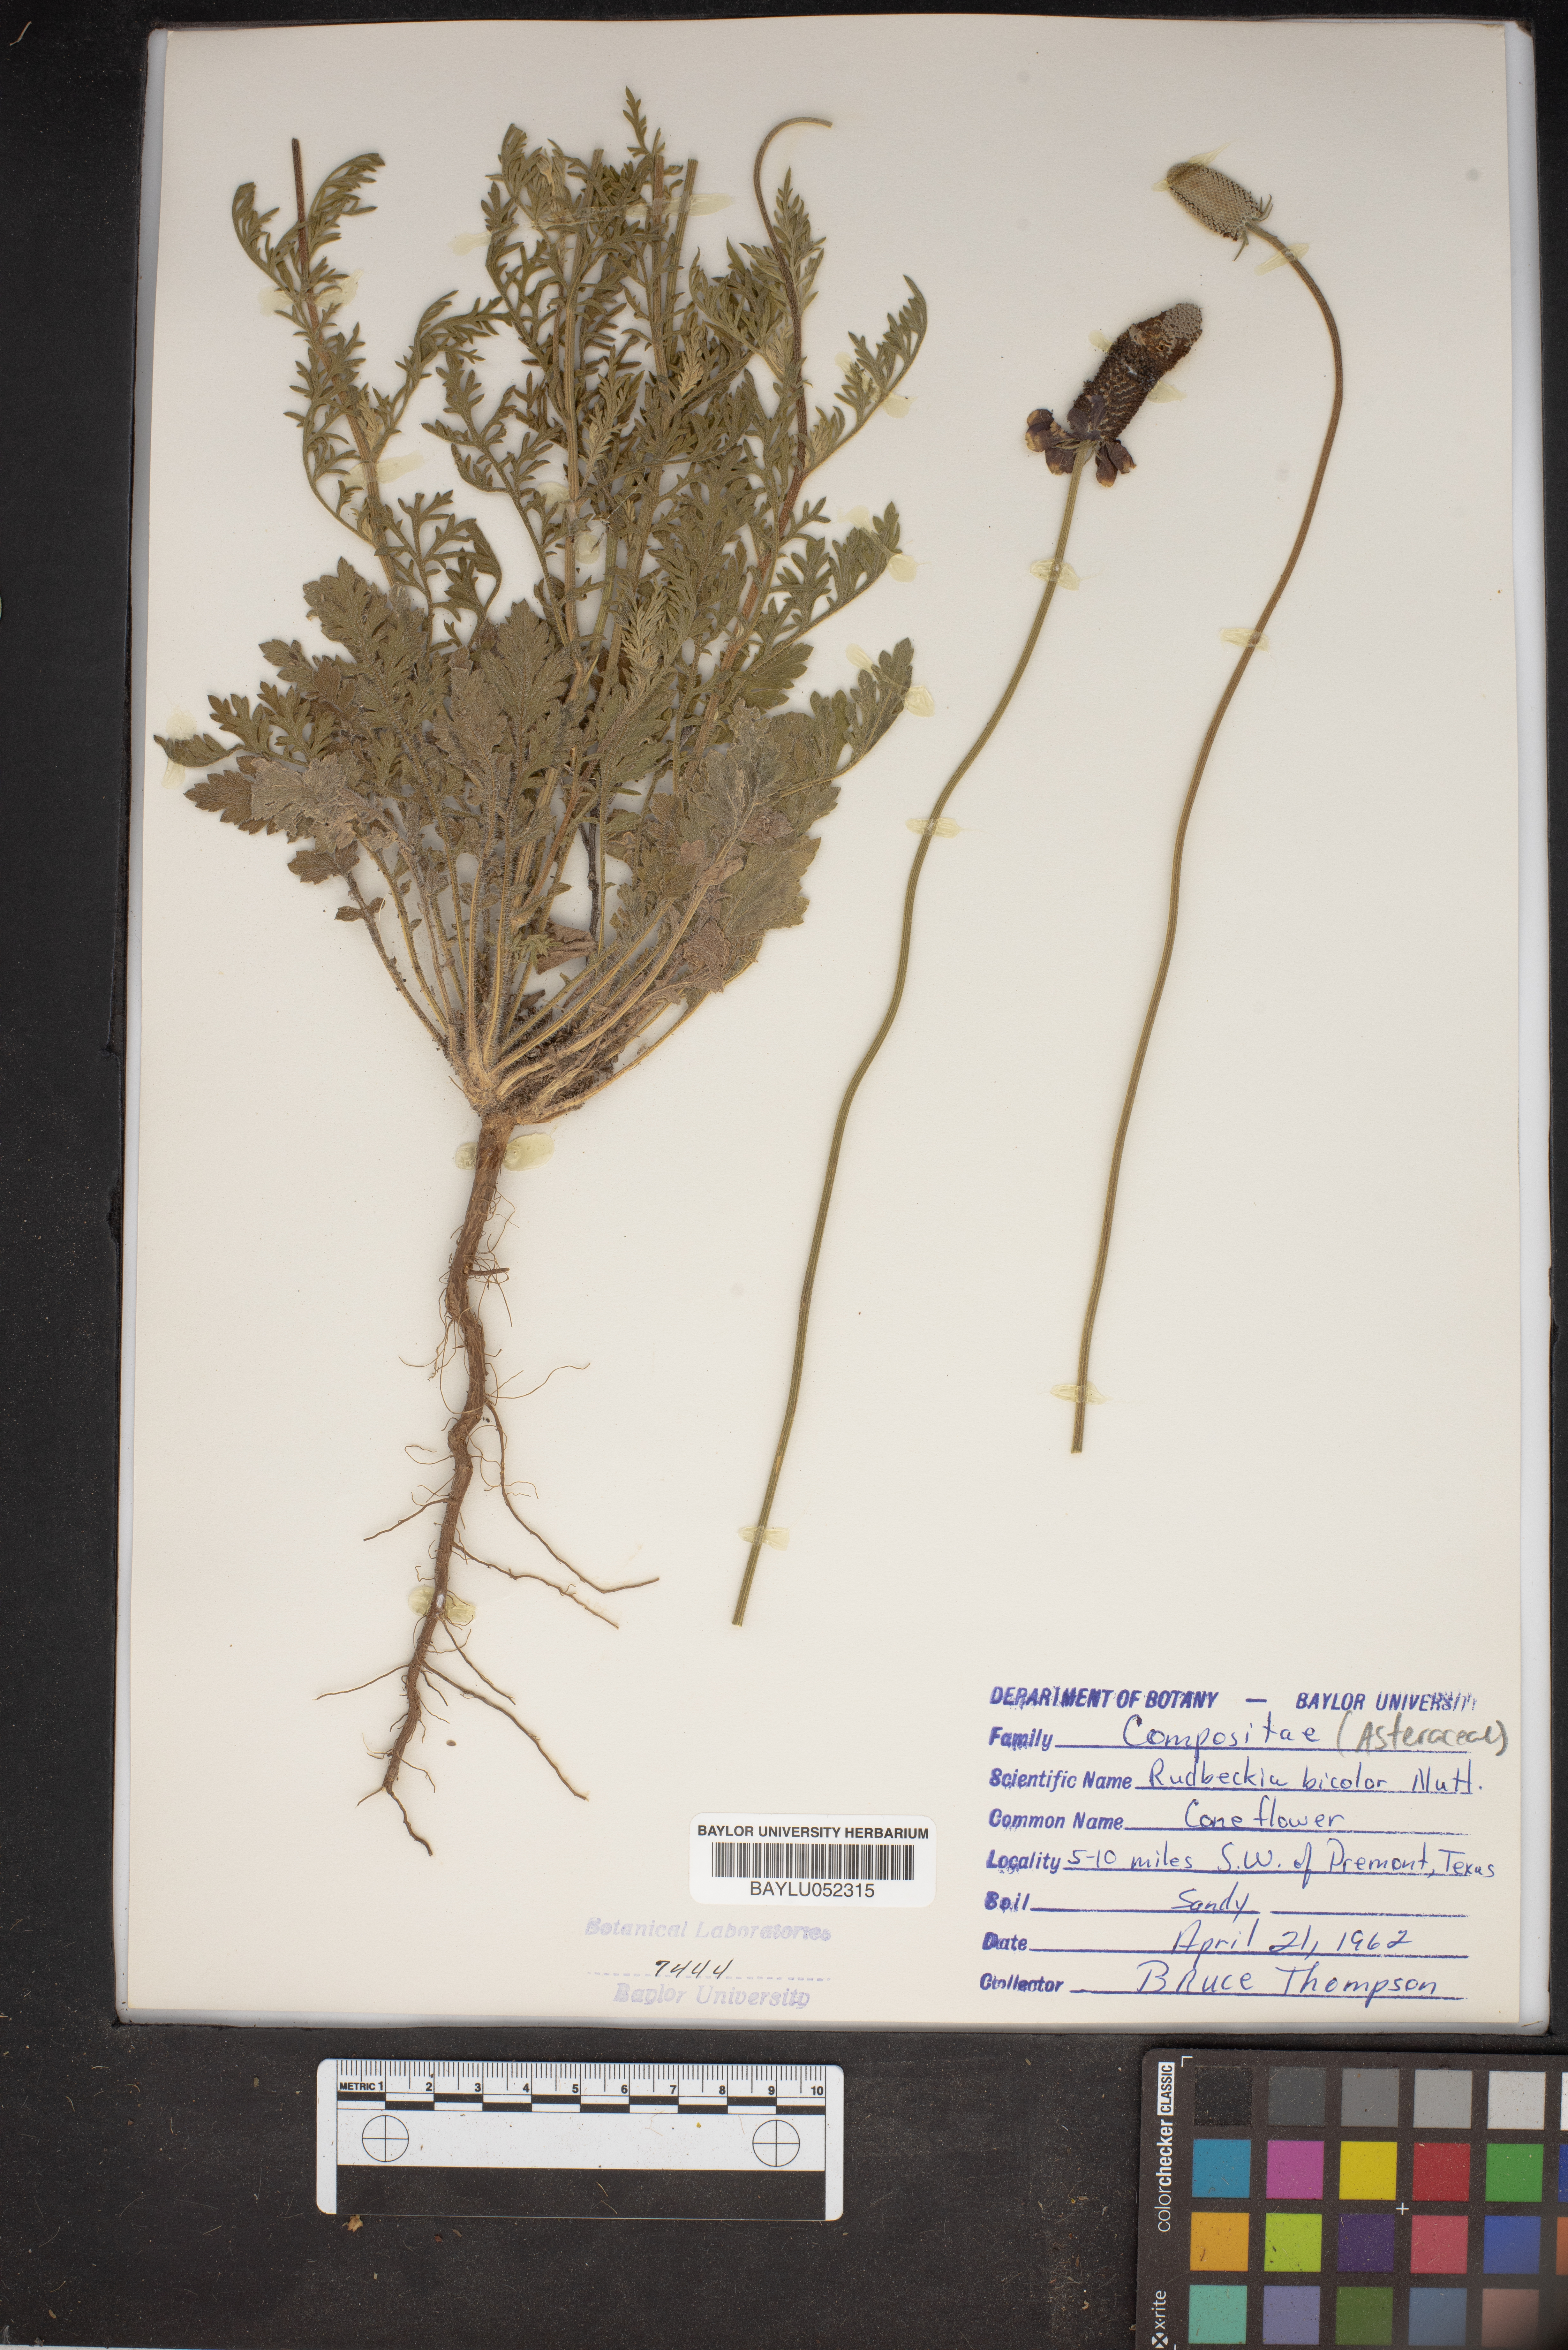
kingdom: Plantae
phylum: Tracheophyta
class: Magnoliopsida
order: Asterales
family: Asteraceae
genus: Rudbeckia
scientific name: Rudbeckia hirta
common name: Black-eyed-susan
